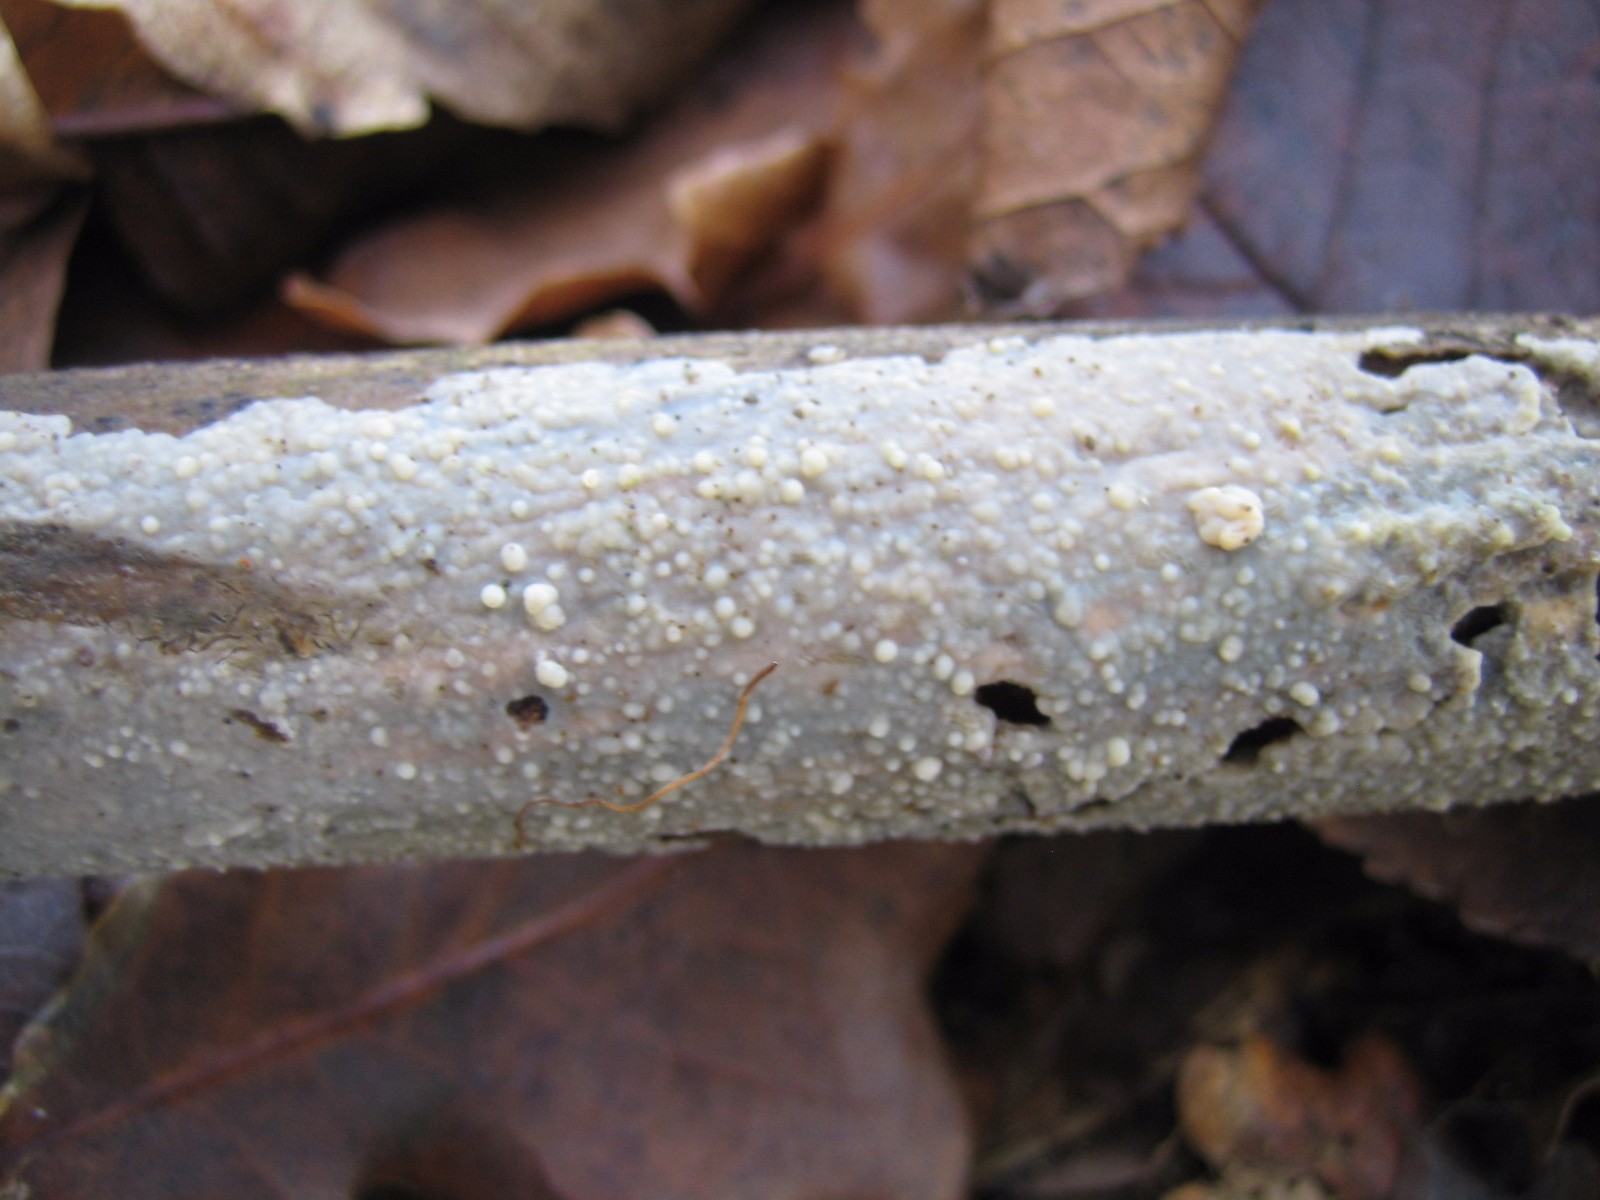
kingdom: Fungi
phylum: Basidiomycota
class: Agaricomycetes
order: Agaricales
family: Radulomycetaceae
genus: Radulomyces
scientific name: Radulomyces confluens
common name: glat naftalinskind
